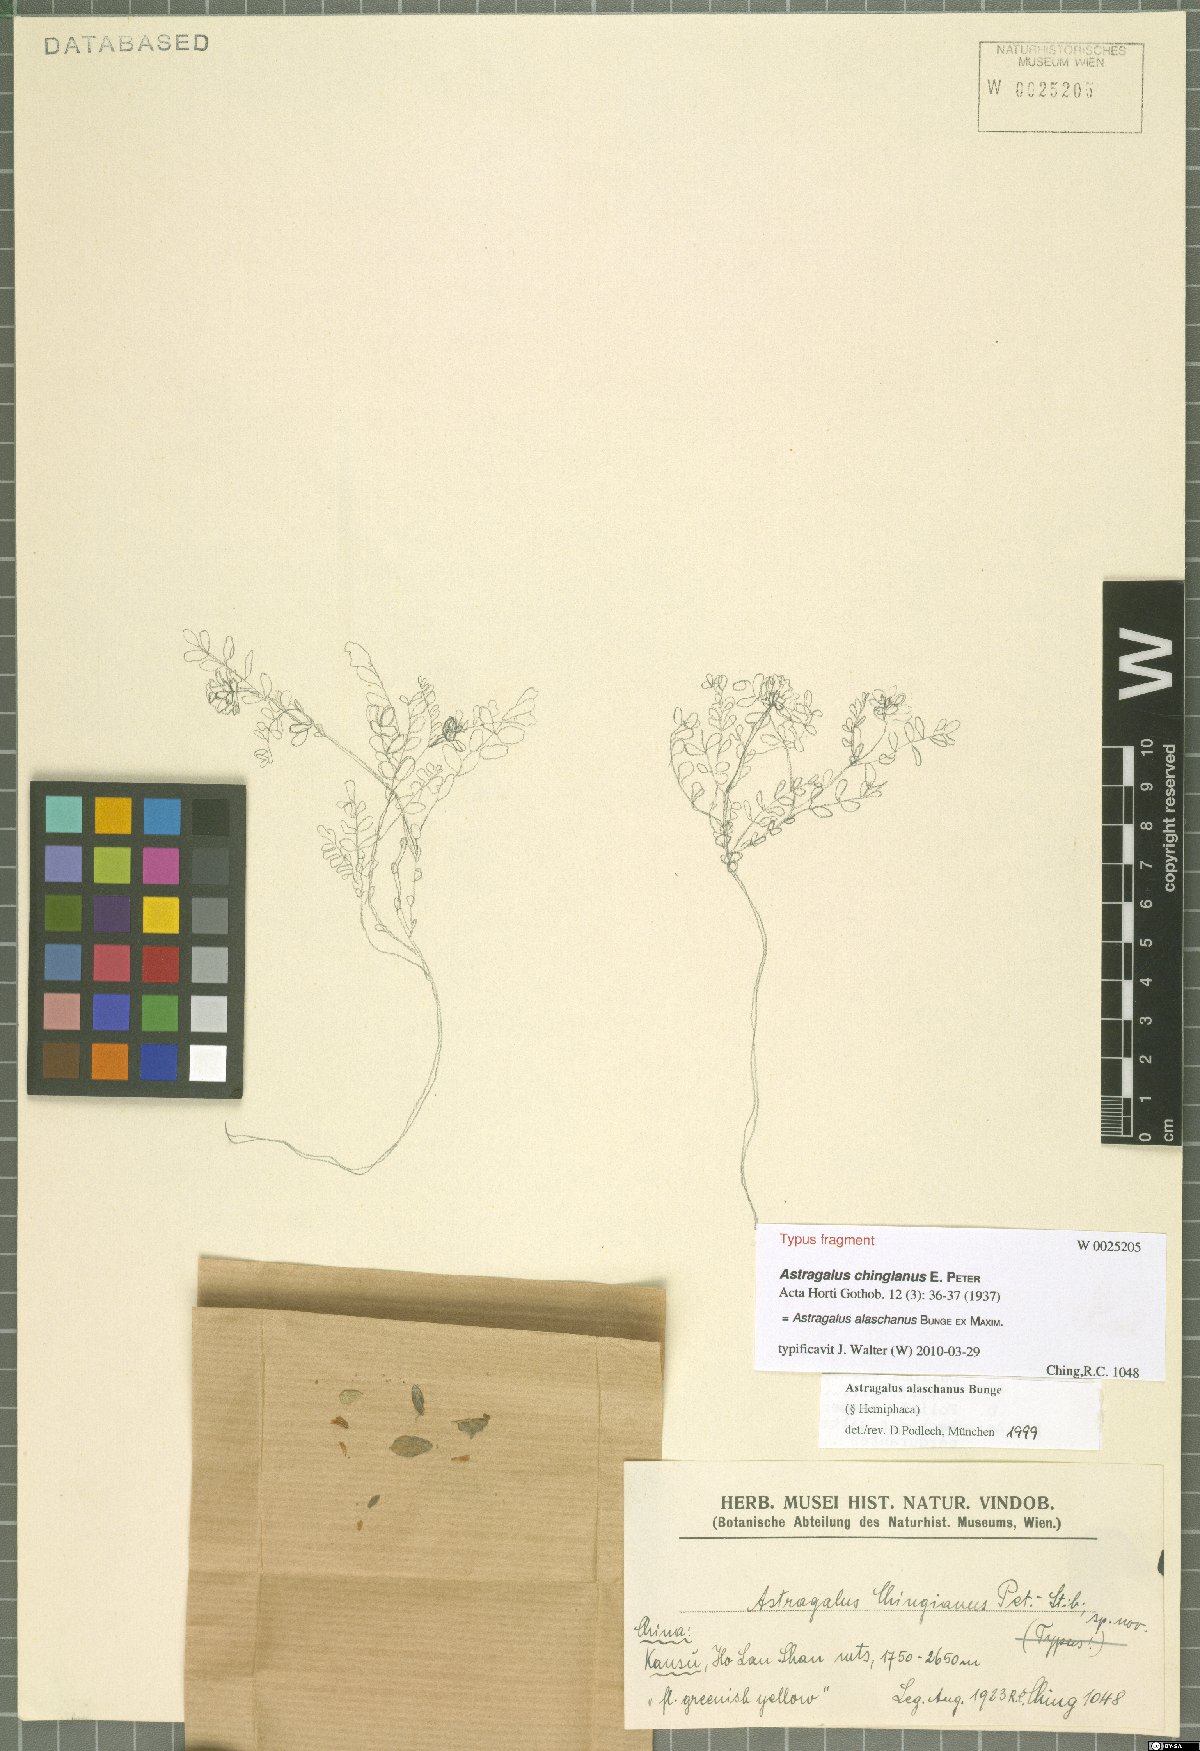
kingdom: Plantae
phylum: Tracheophyta
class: Magnoliopsida
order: Fabales
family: Fabaceae
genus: Astragalus
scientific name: Astragalus alaschanus
